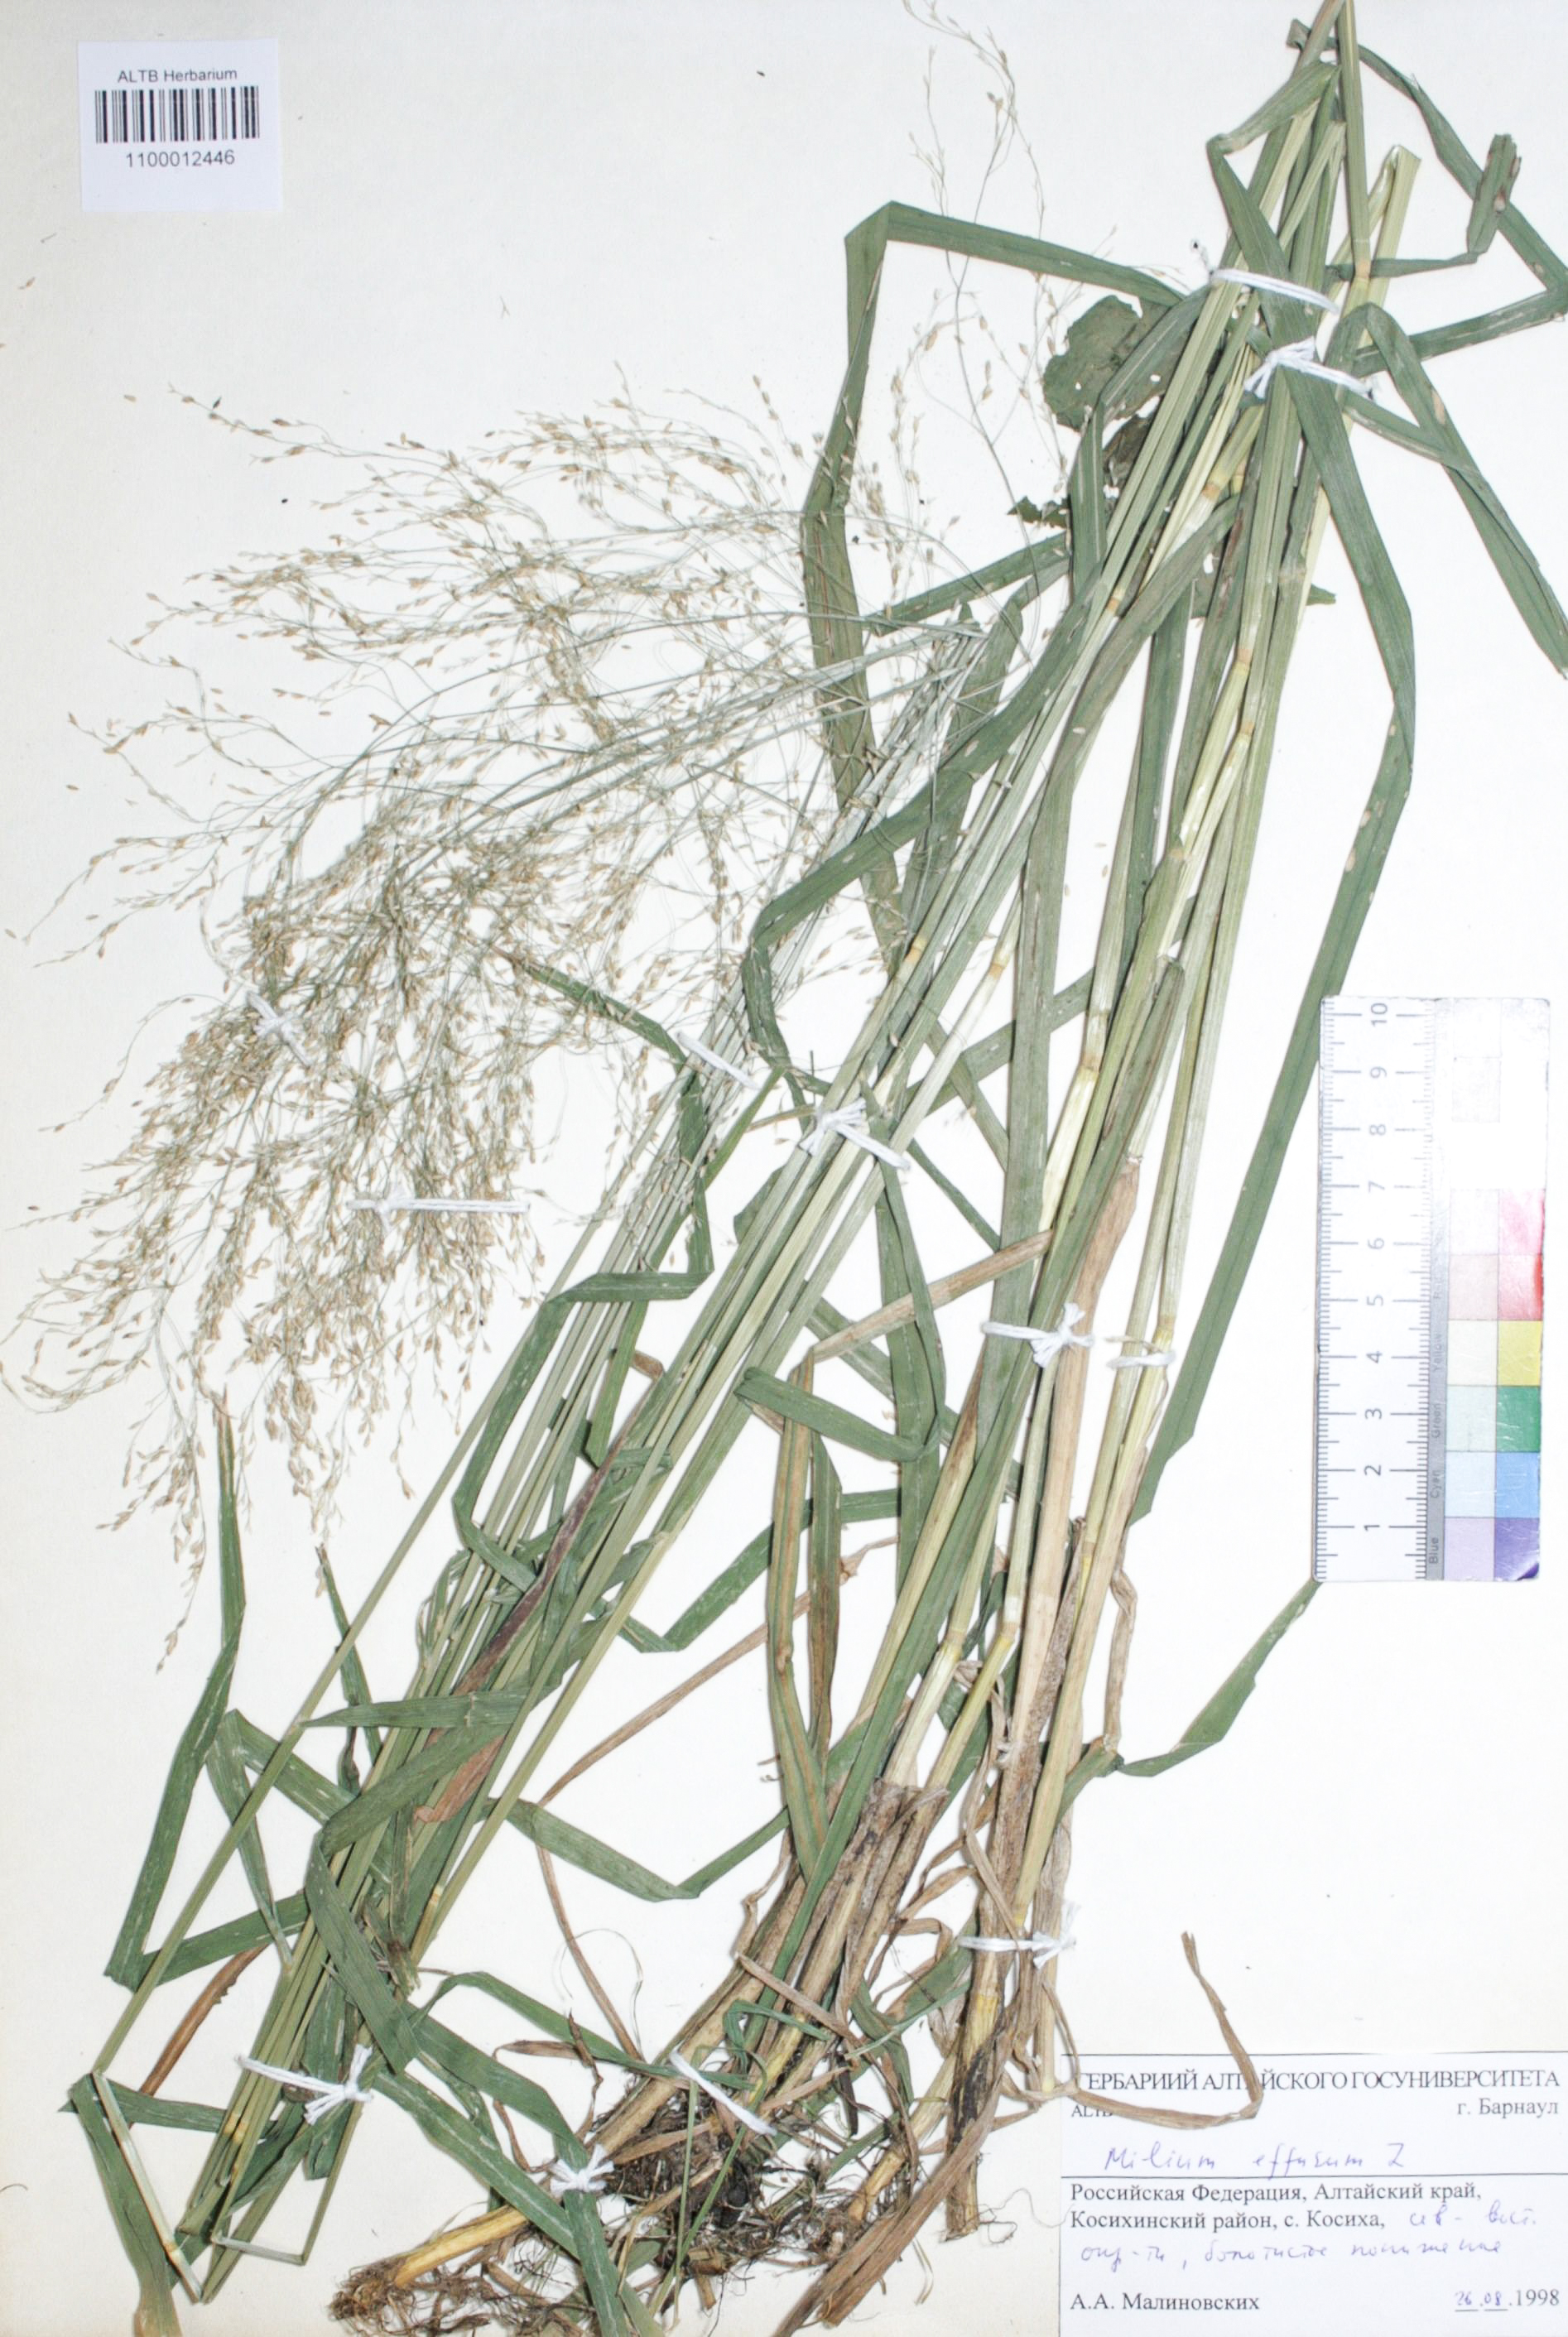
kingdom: Plantae
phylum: Tracheophyta
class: Liliopsida
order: Poales
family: Poaceae
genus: Milium
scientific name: Milium effusum
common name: Wood millet
